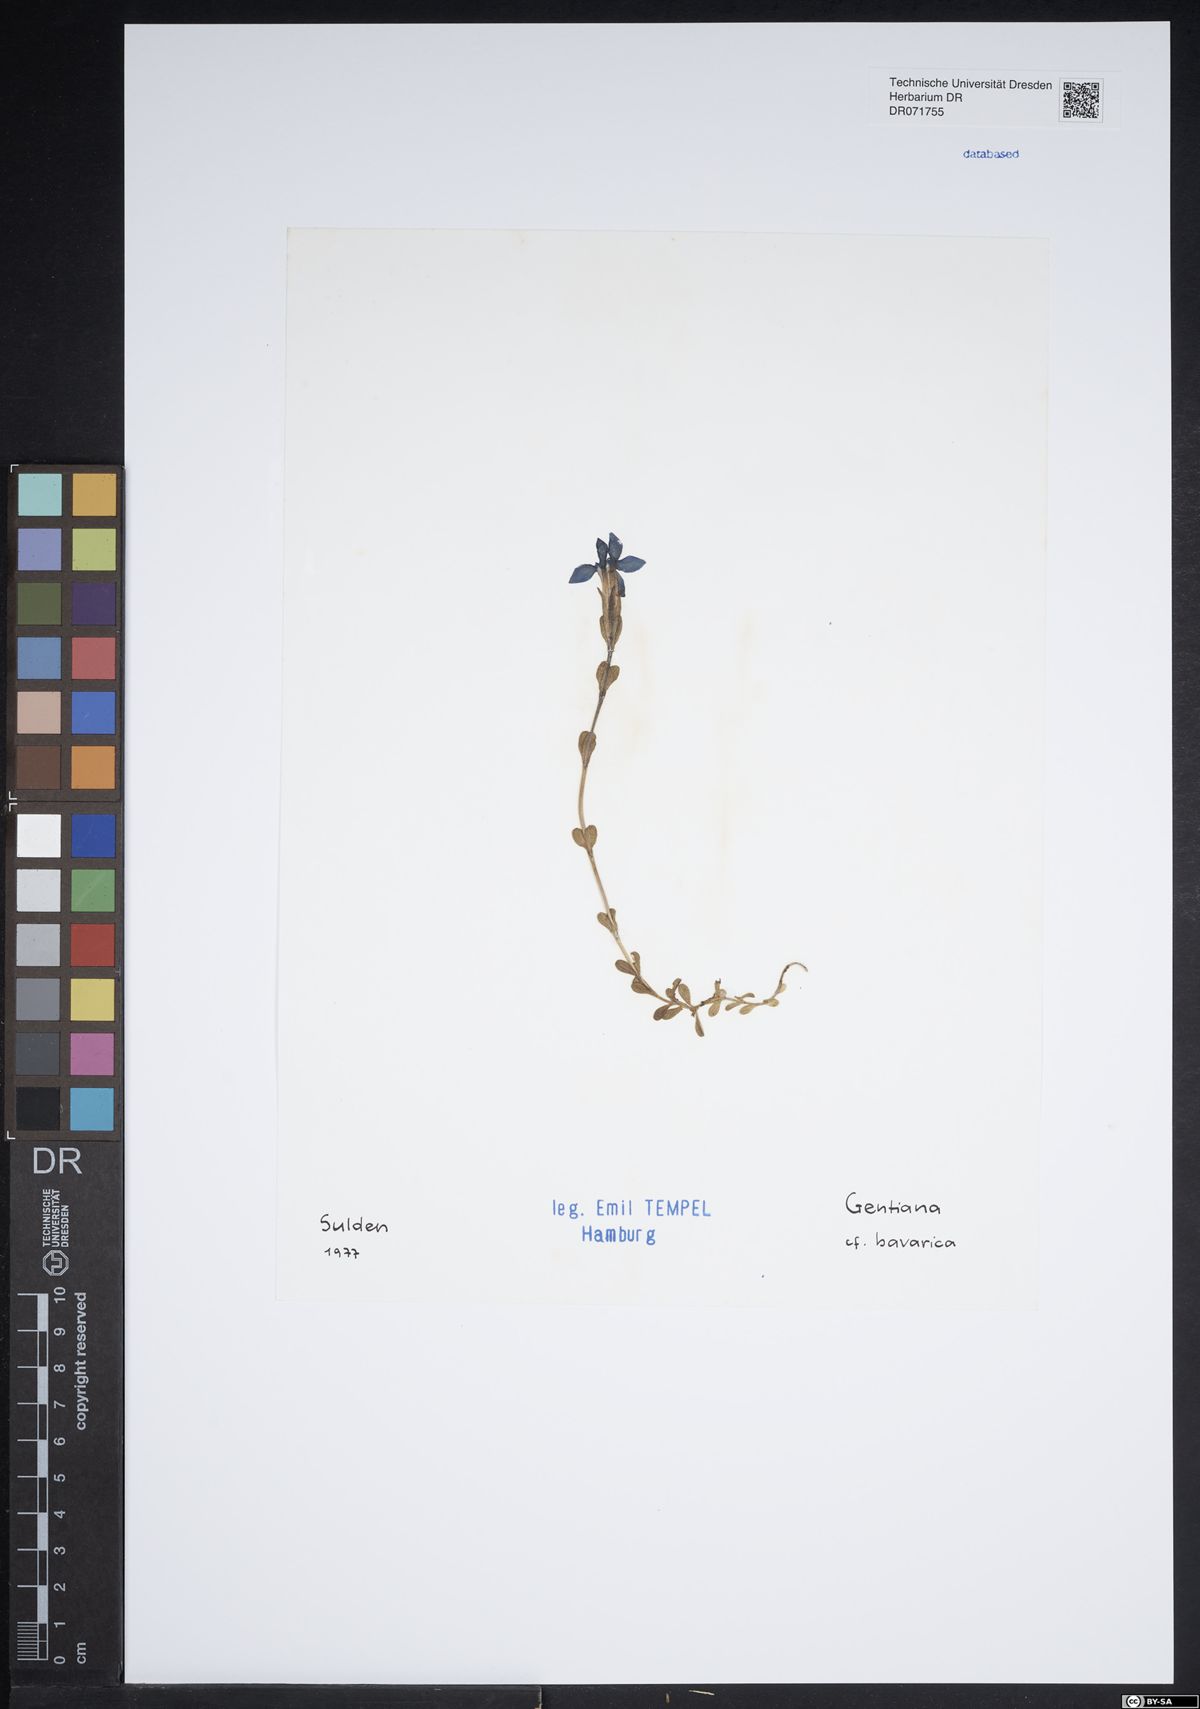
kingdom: Plantae
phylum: Tracheophyta
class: Magnoliopsida
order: Gentianales
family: Gentianaceae
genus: Gentiana
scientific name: Gentiana bavarica
